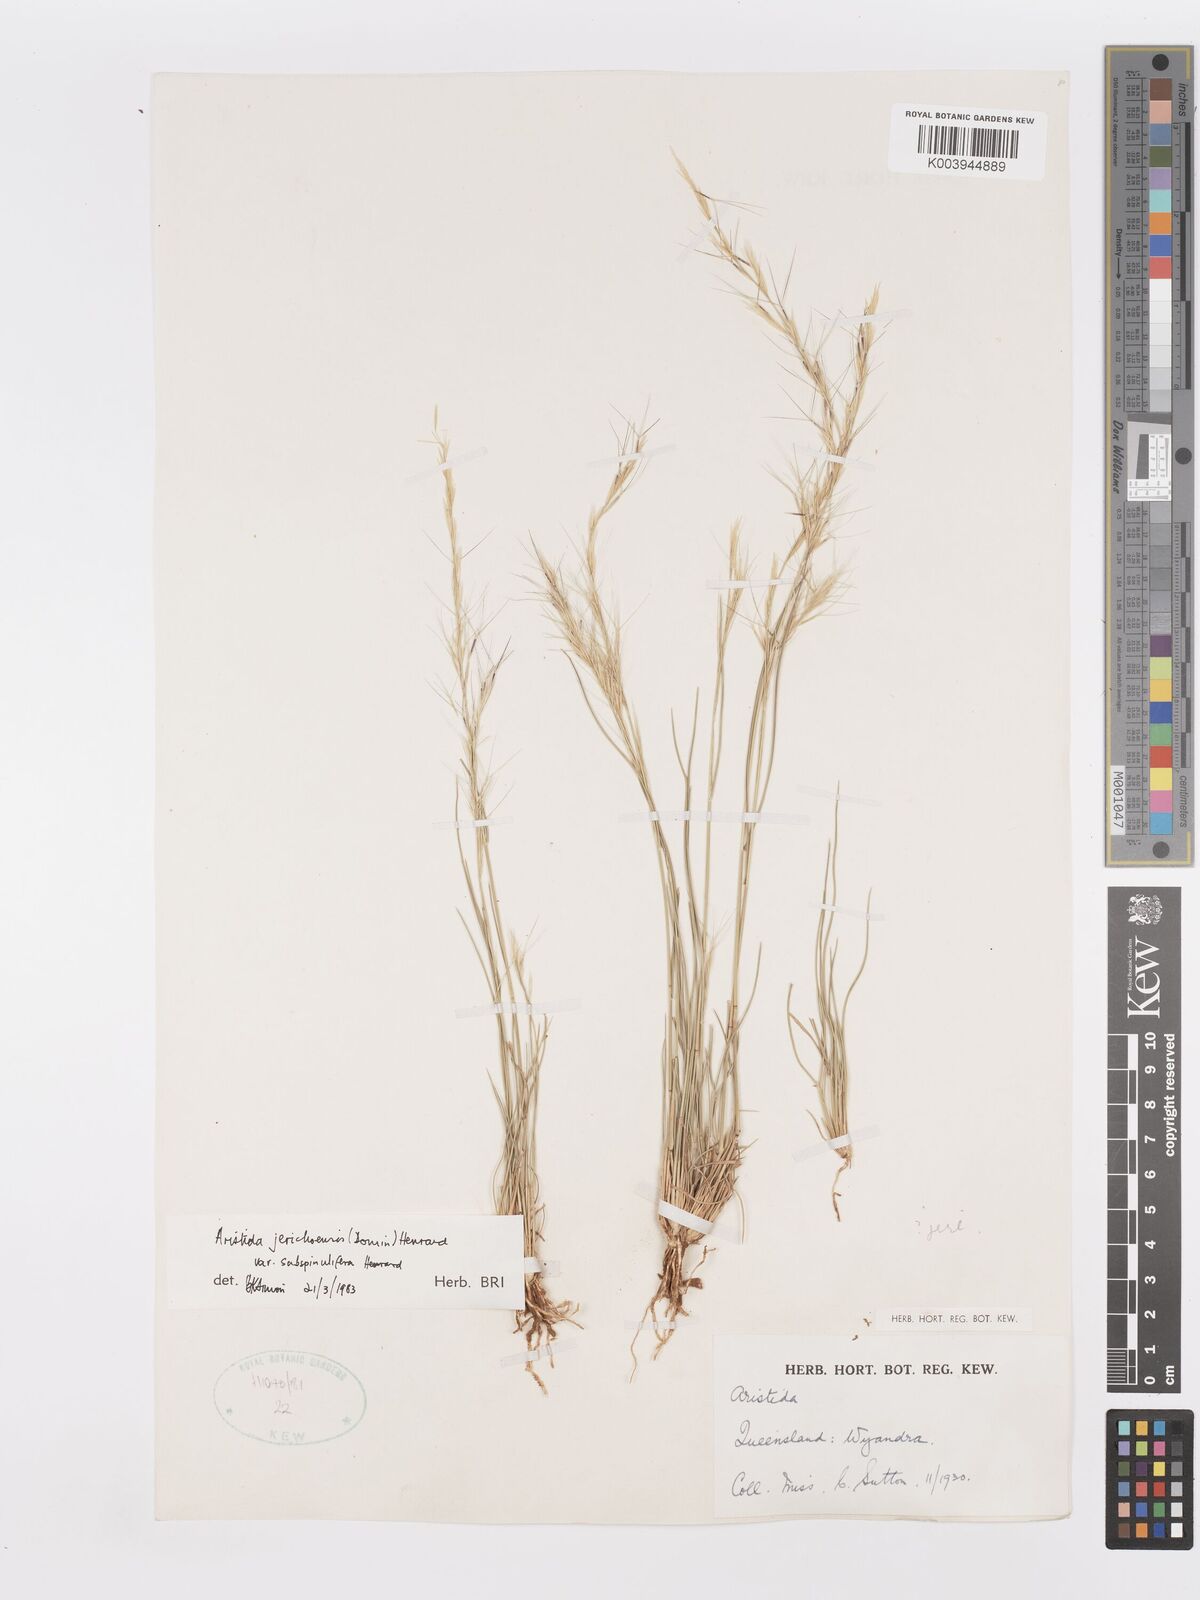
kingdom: Plantae
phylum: Tracheophyta
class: Liliopsida
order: Poales
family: Poaceae
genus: Aristida
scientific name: Aristida jerichoensis
